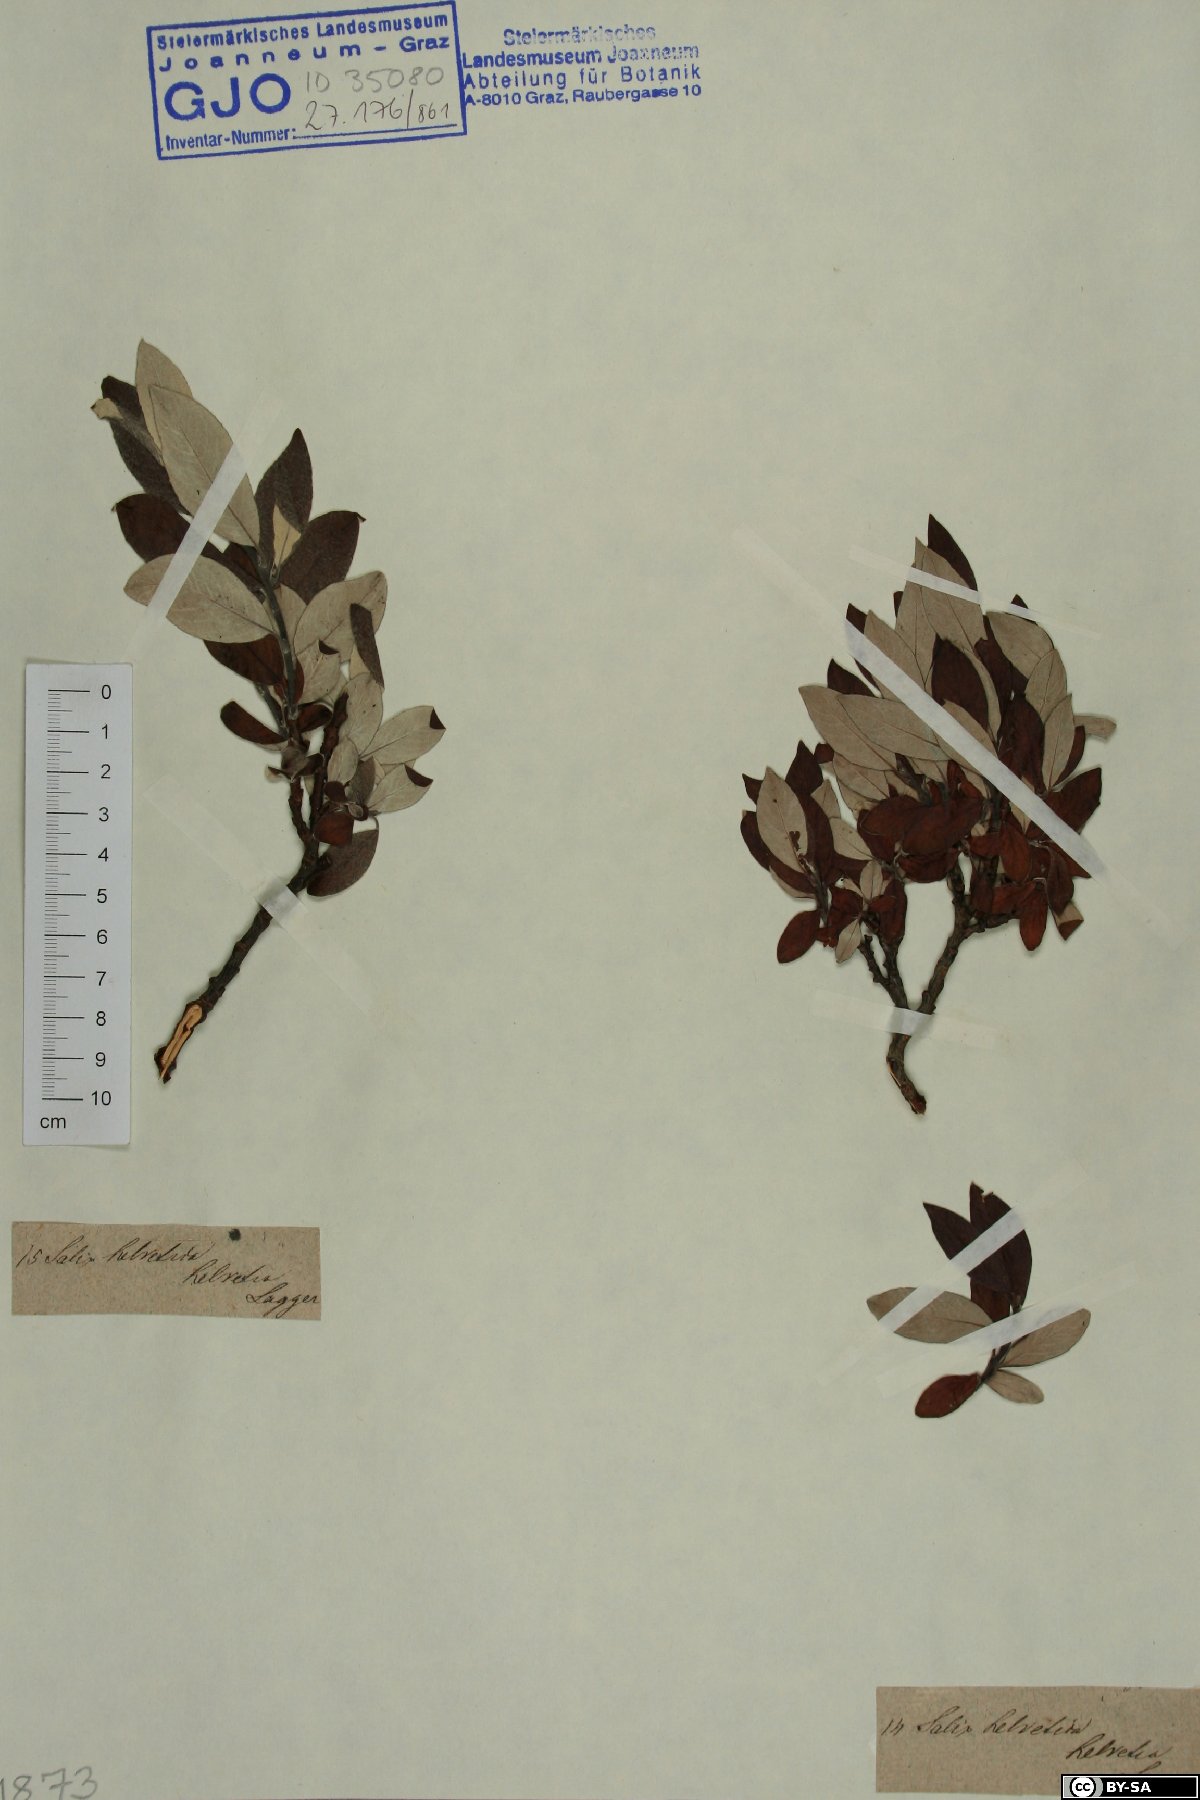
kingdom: Plantae
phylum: Tracheophyta
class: Magnoliopsida
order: Malpighiales
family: Salicaceae
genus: Salix
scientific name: Salix helvetica
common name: Swiss willow
